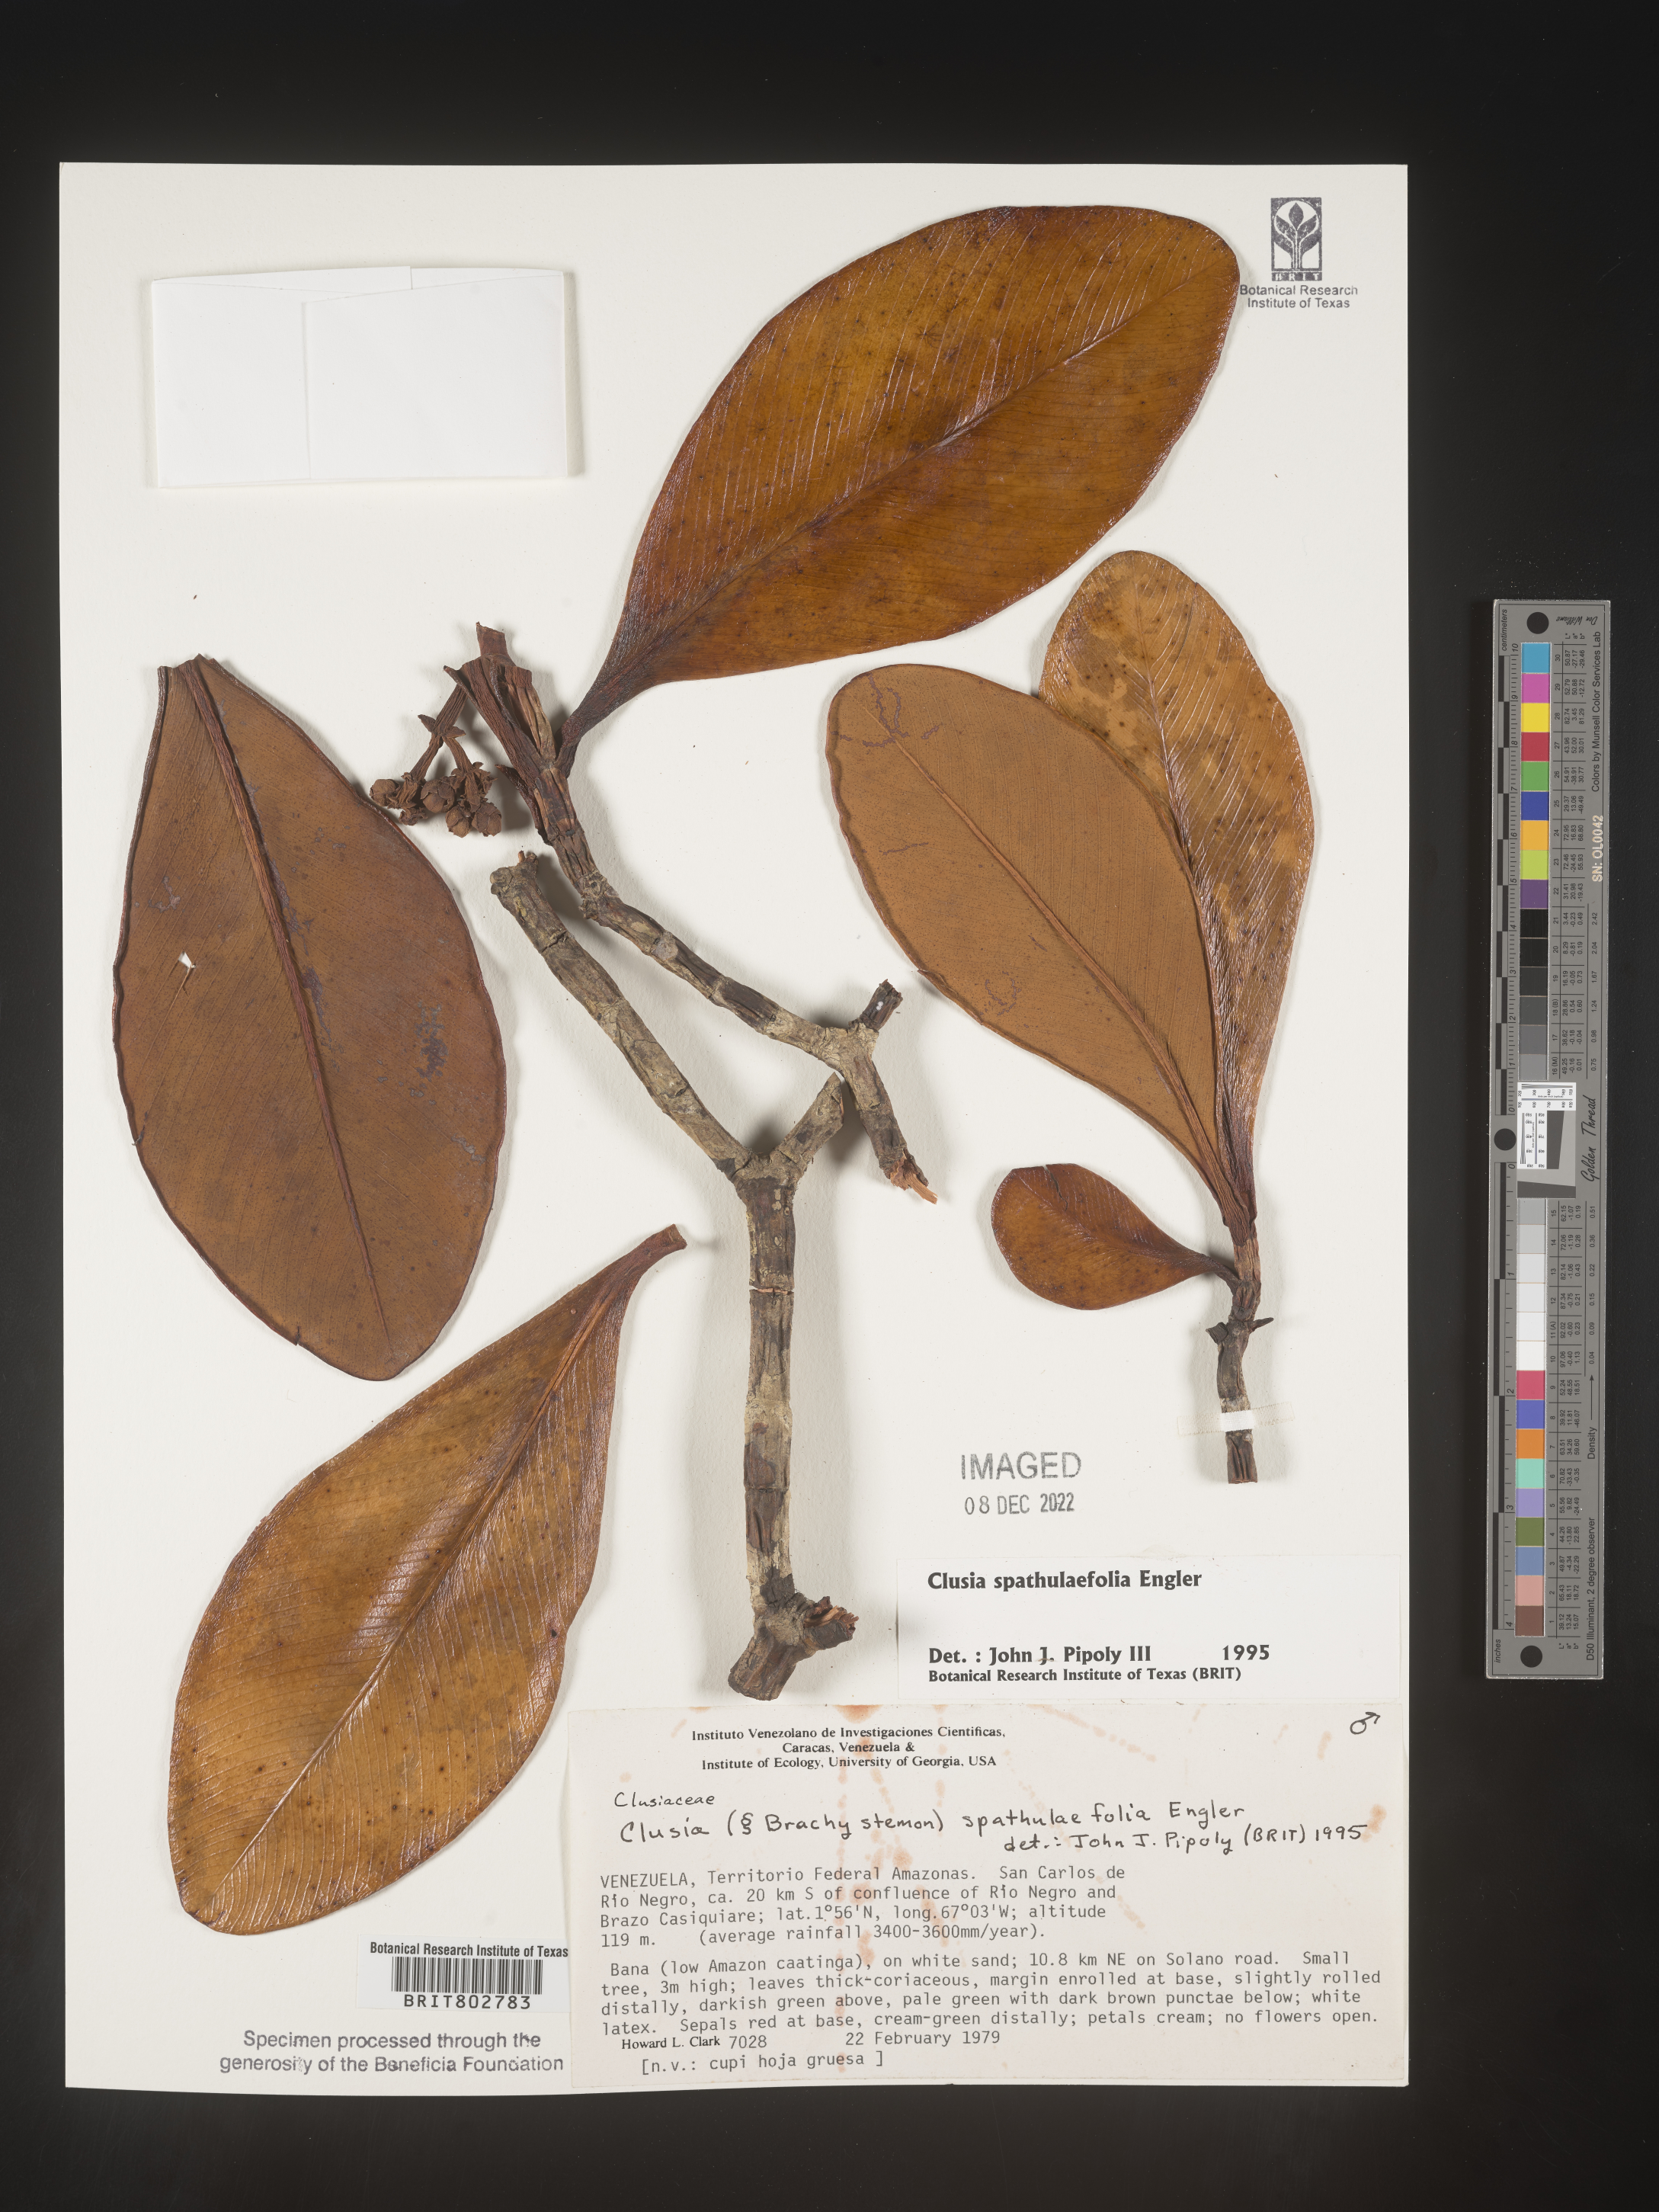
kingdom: Plantae
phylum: Tracheophyta
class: Magnoliopsida
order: Malpighiales
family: Clusiaceae
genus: Clusia
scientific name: Clusia spathulifolia
